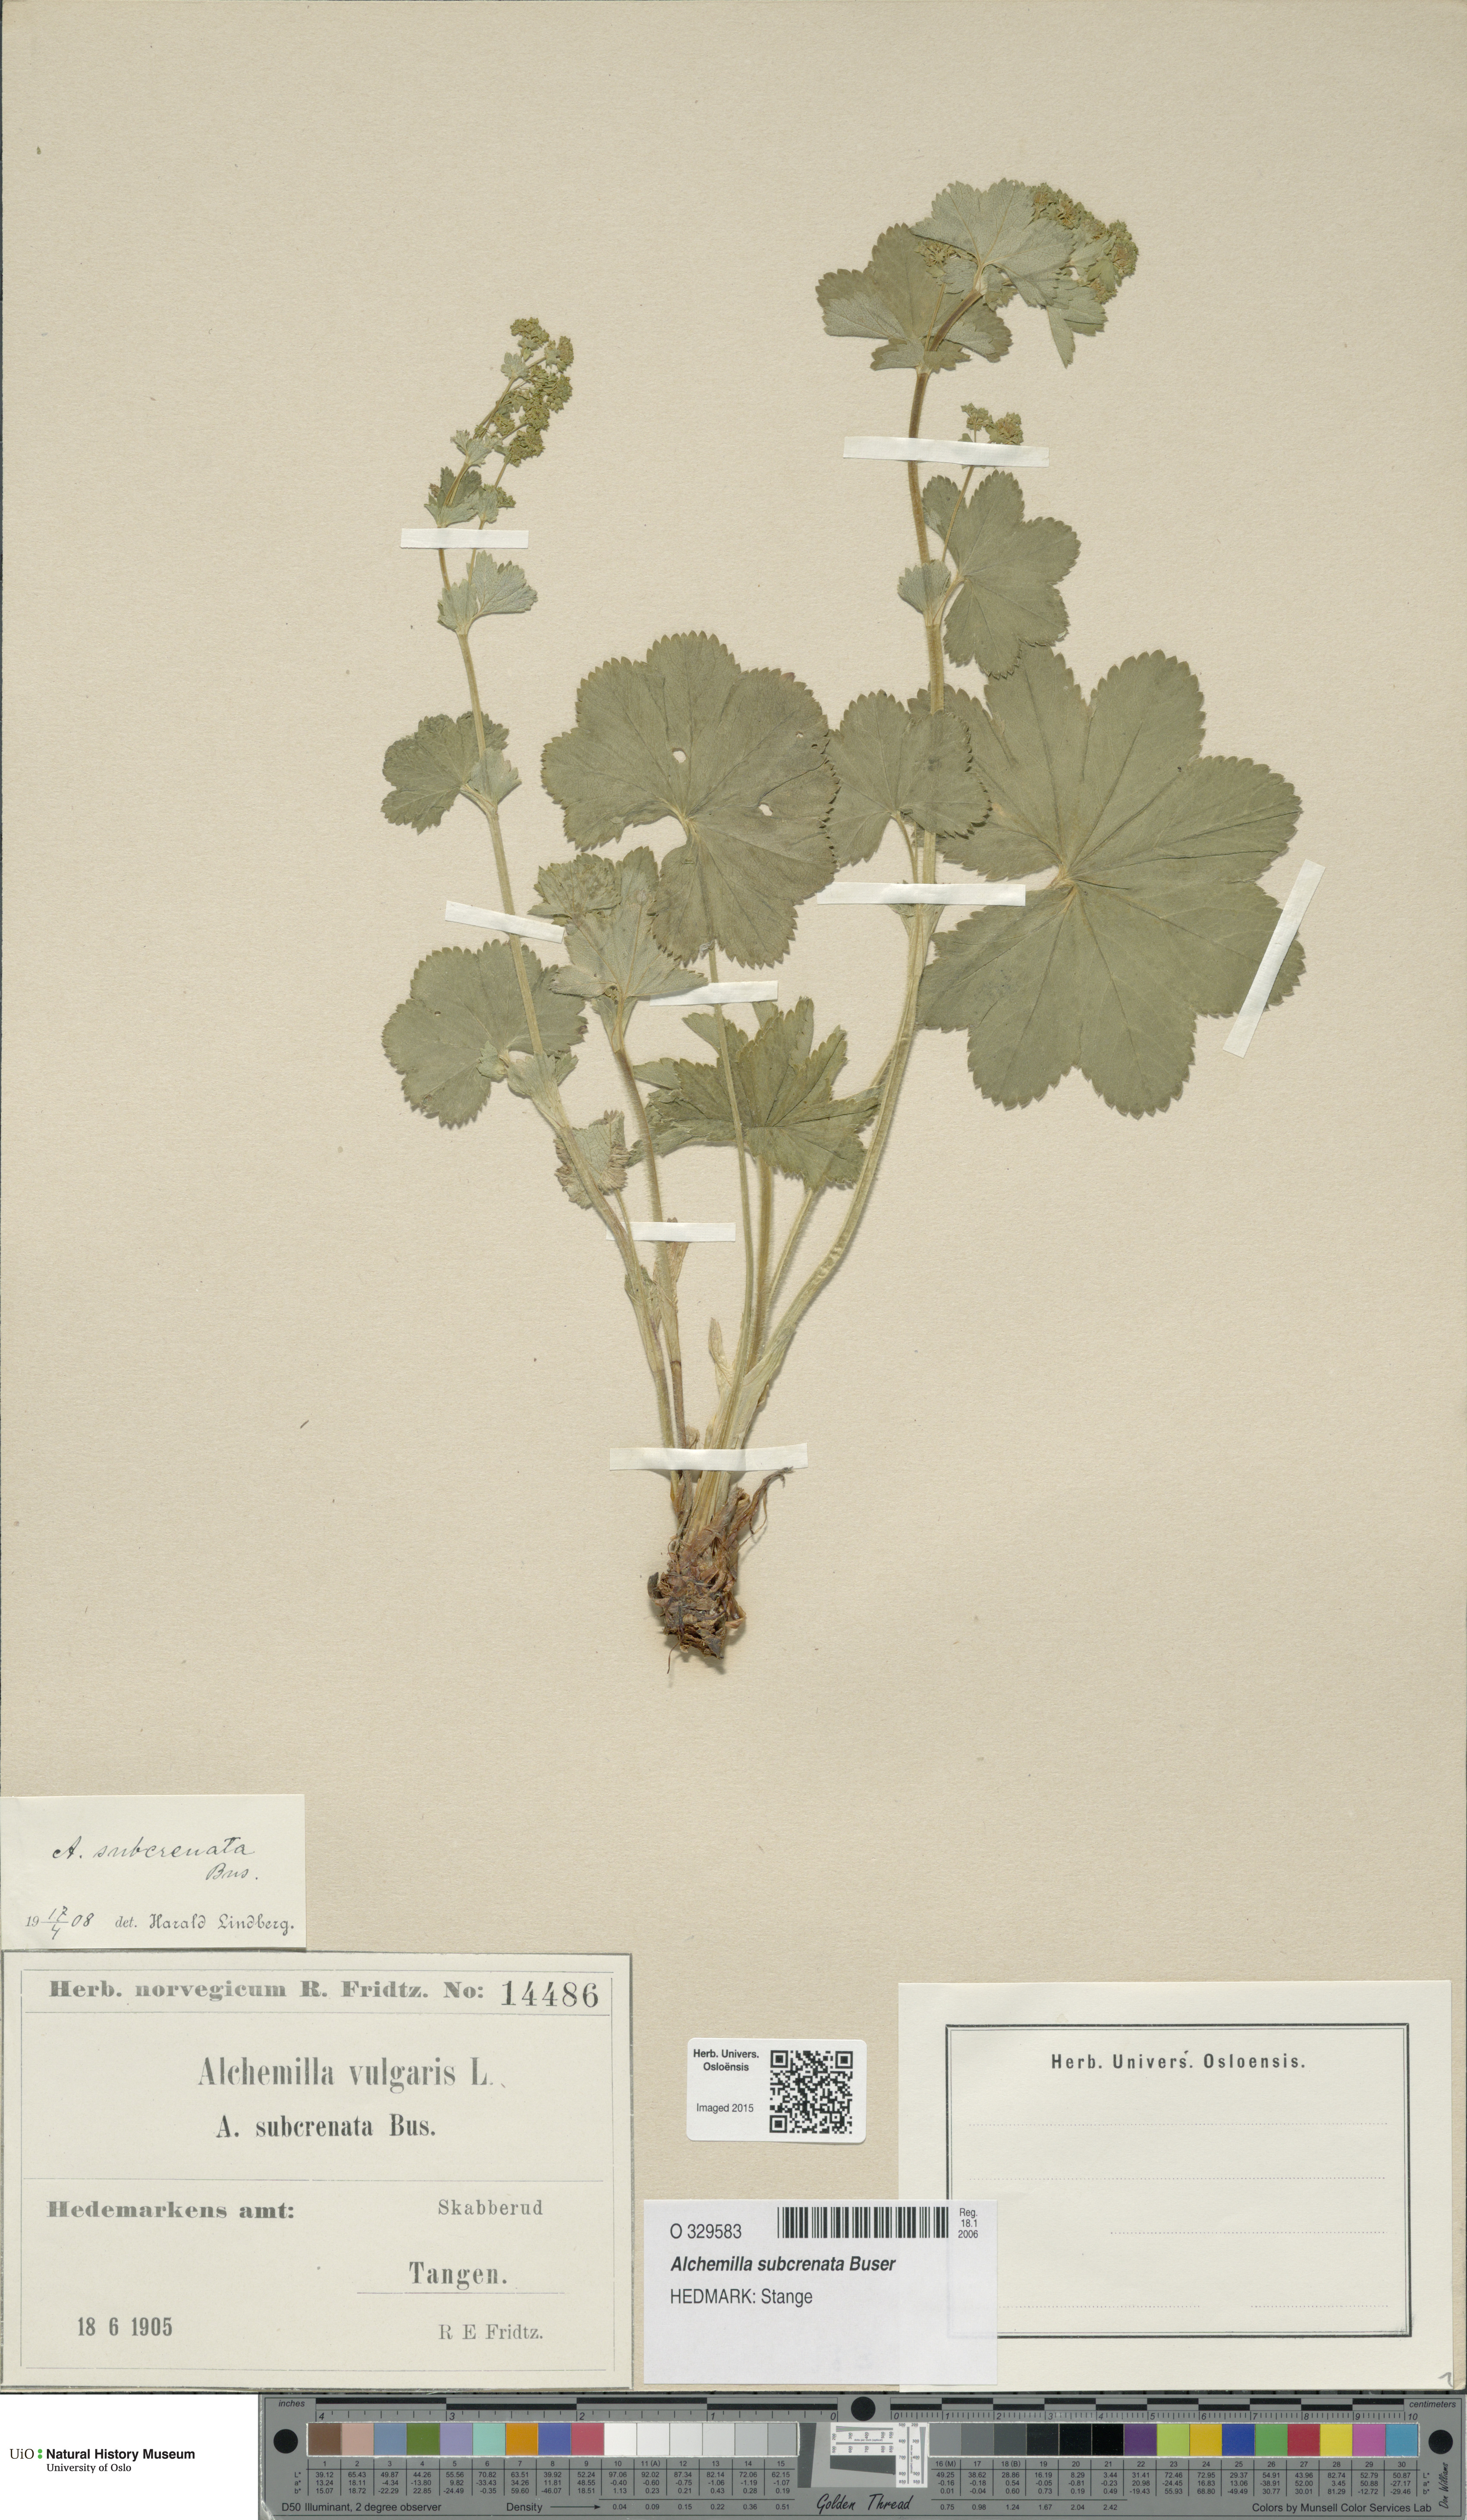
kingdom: Plantae
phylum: Tracheophyta
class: Magnoliopsida
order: Rosales
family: Rosaceae
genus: Alchemilla
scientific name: Alchemilla subcrenata
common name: Broadtooth lady's mantle
